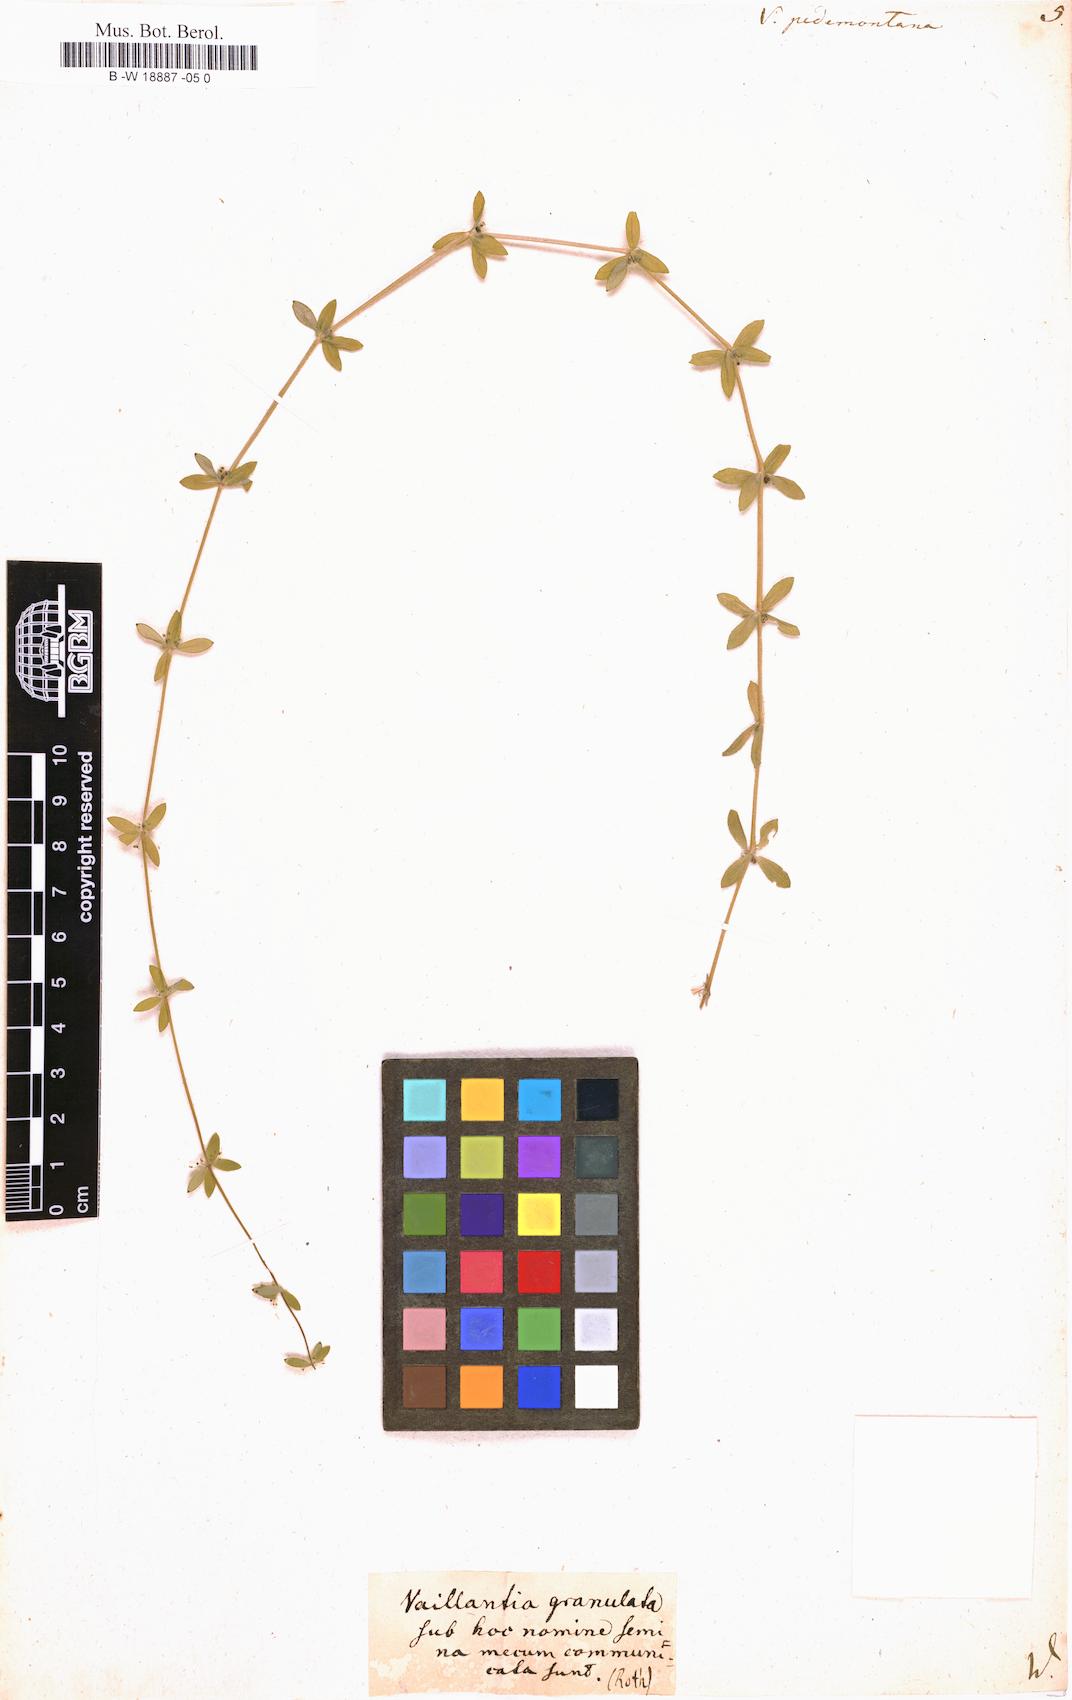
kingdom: Plantae
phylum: Tracheophyta
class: Magnoliopsida
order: Gentianales
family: Rubiaceae
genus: Cruciata
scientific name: Cruciata pedemontana
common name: Piedmont bedstraw
